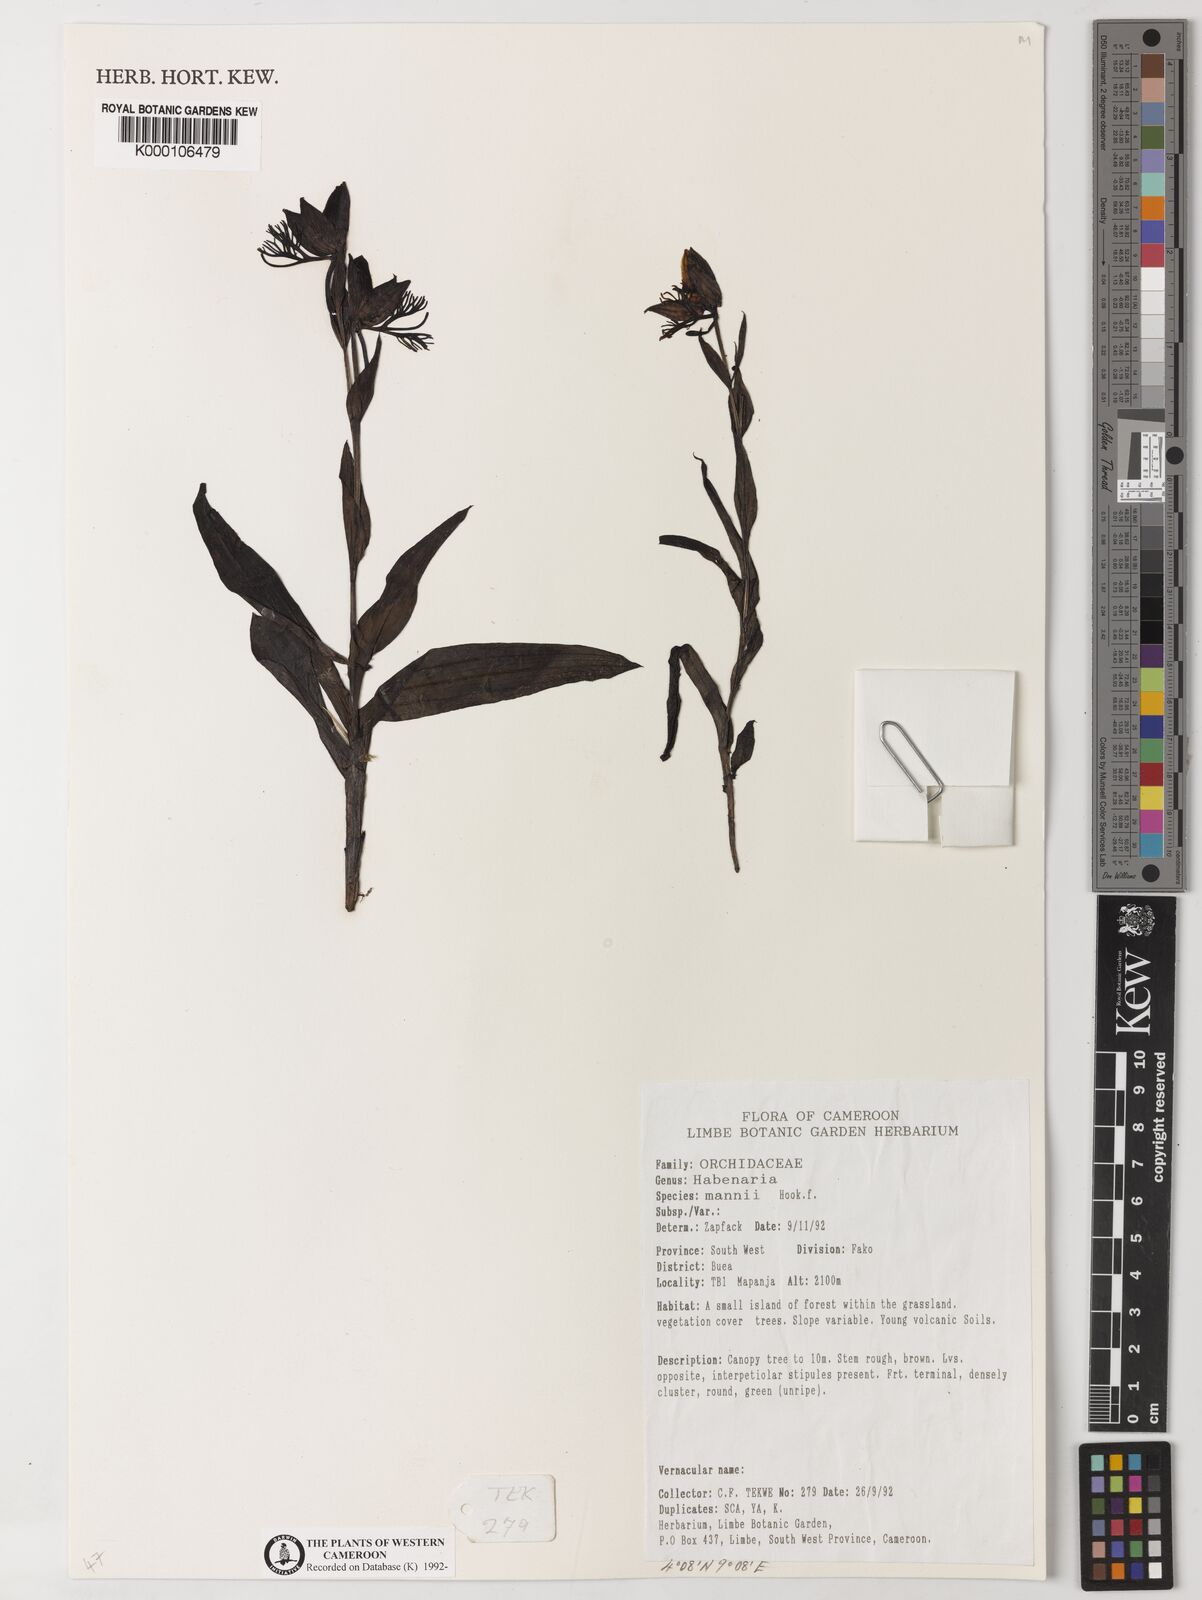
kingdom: Plantae
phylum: Tracheophyta
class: Liliopsida
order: Asparagales
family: Orchidaceae
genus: Habenaria
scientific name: Habenaria mannii
